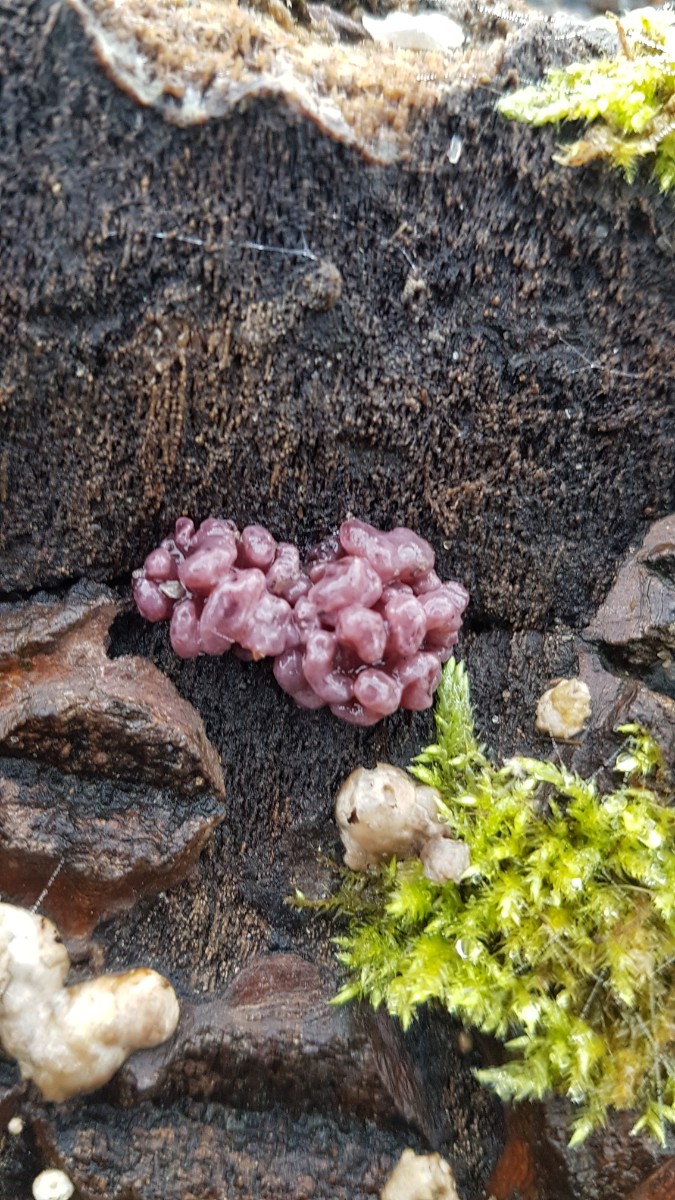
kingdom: Fungi
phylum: Ascomycota
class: Leotiomycetes
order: Helotiales
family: Gelatinodiscaceae
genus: Ascocoryne
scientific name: Ascocoryne sarcoides
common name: rødlilla sejskive
